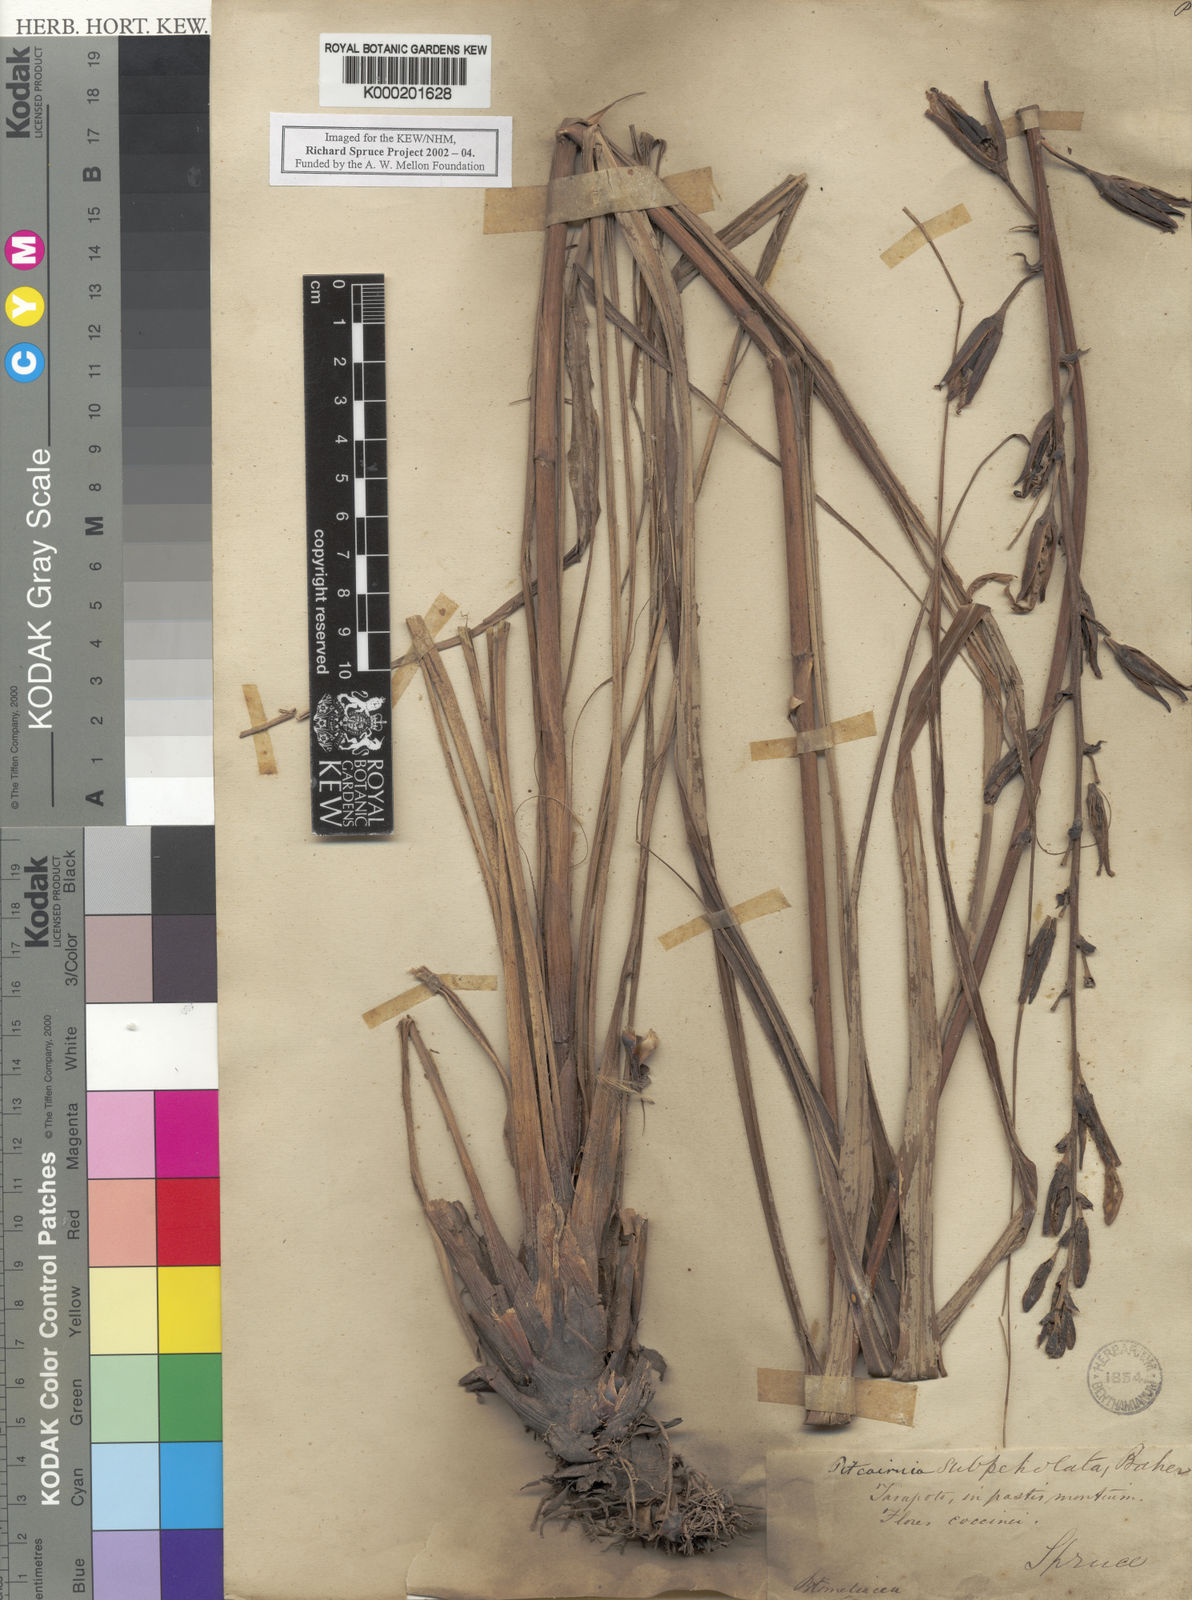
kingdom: Plantae
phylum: Tracheophyta
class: Liliopsida
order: Poales
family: Bromeliaceae
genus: Pitcairnia
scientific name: Pitcairnia lanuginosa
